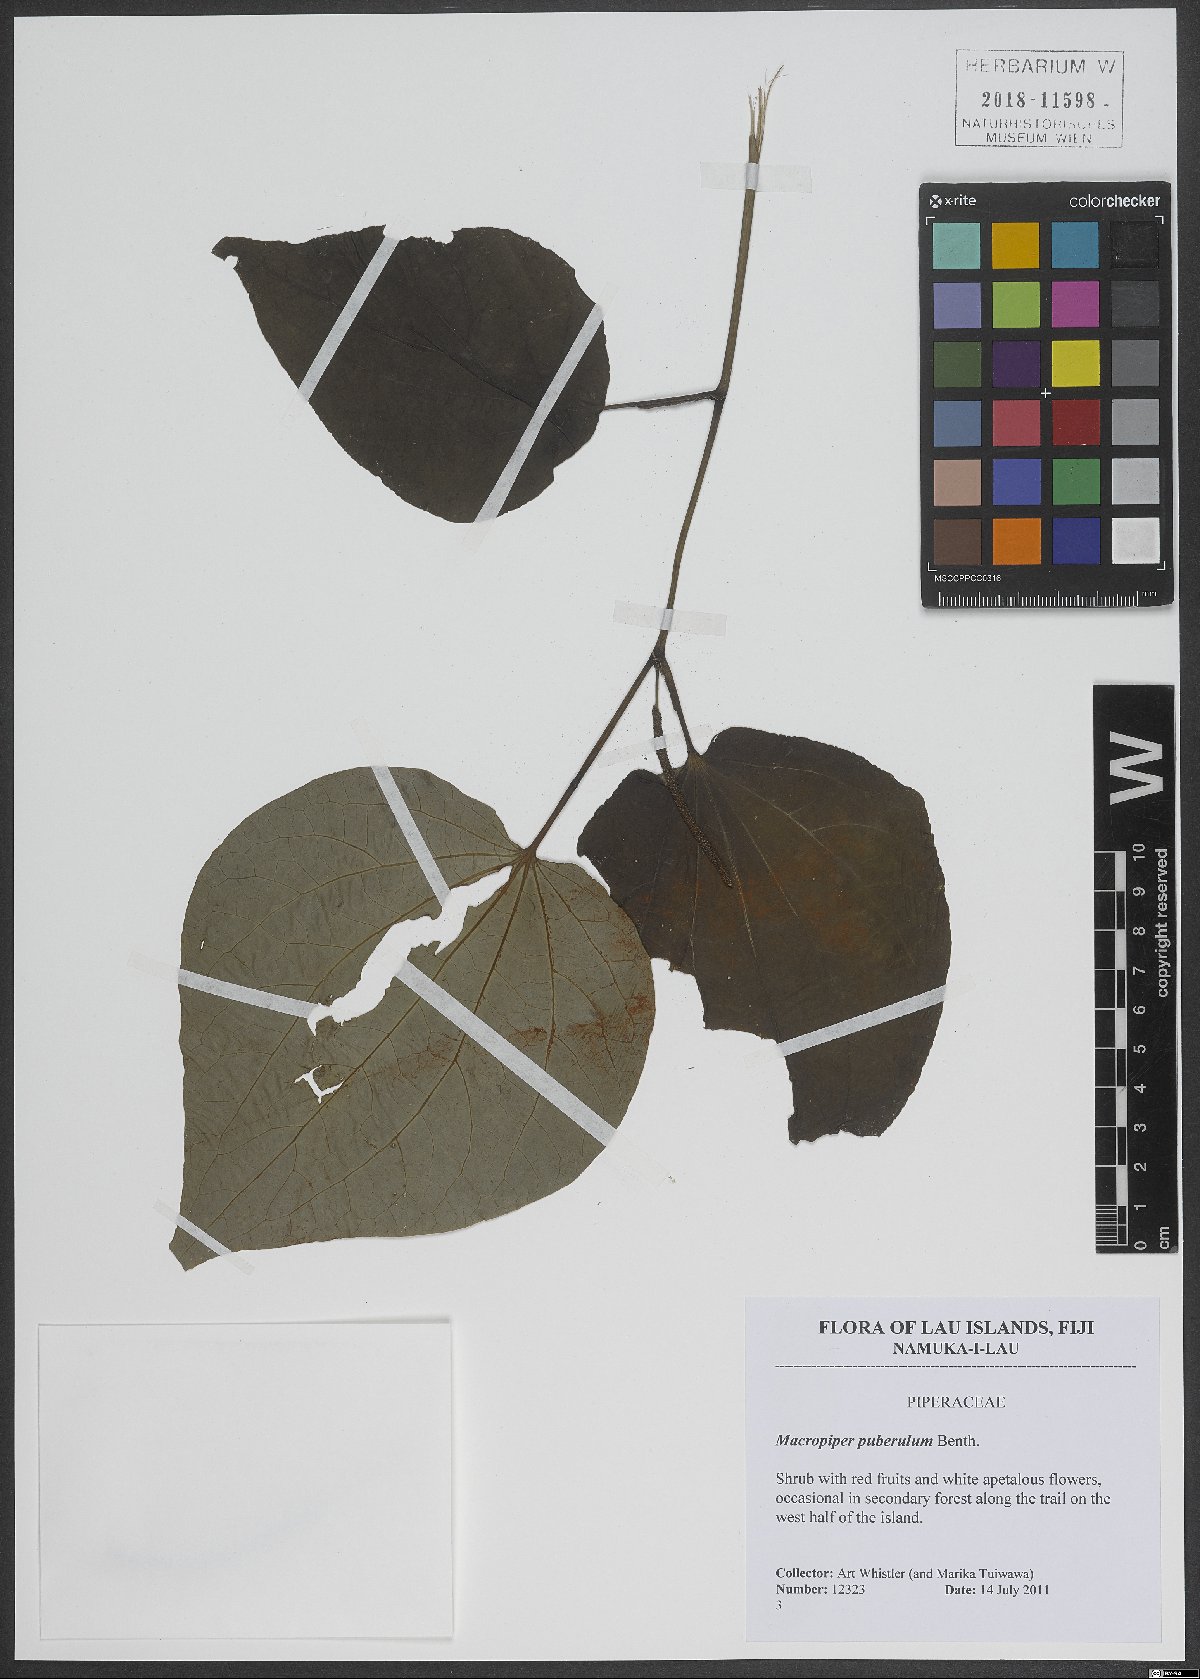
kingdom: Plantae
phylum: Tracheophyta
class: Magnoliopsida
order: Piperales
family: Piperaceae
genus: Macropiper
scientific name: Macropiper puberulum
